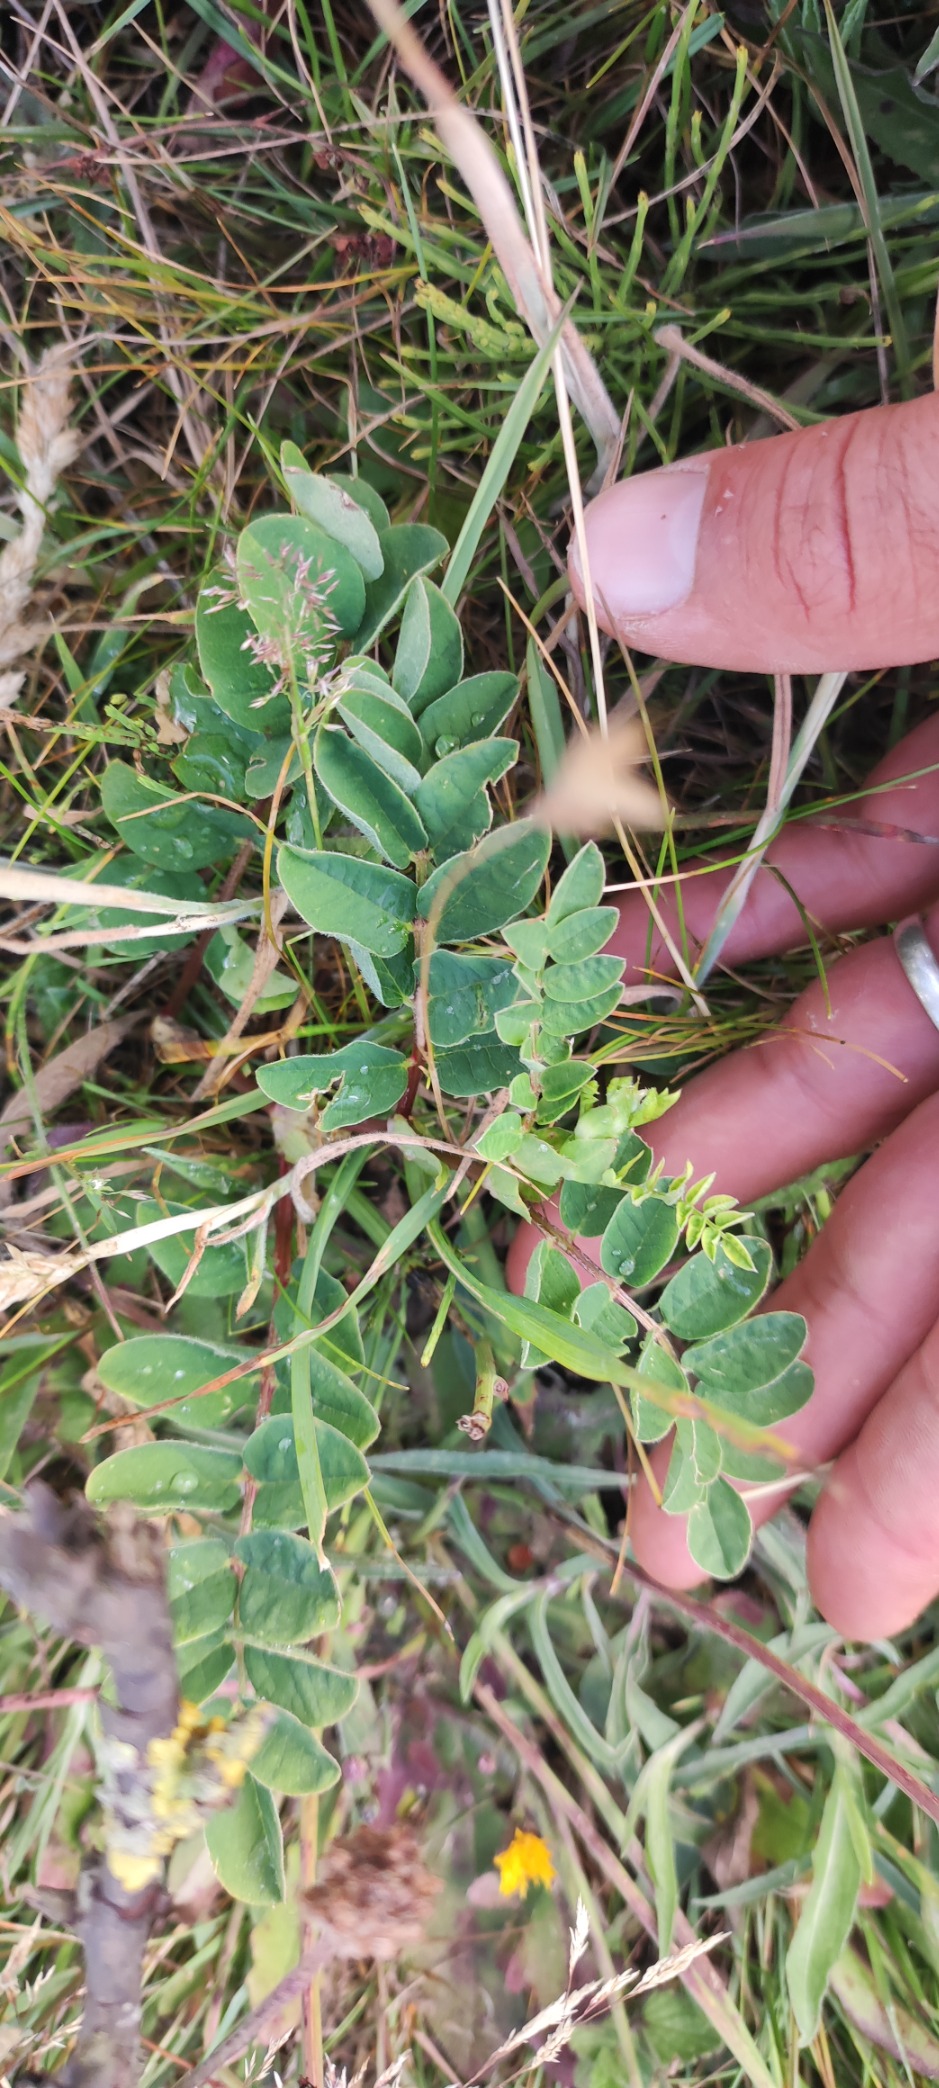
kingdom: Plantae
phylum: Tracheophyta
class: Magnoliopsida
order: Fabales
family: Fabaceae
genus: Astragalus
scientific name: Astragalus glycyphyllos
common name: Sød astragel
